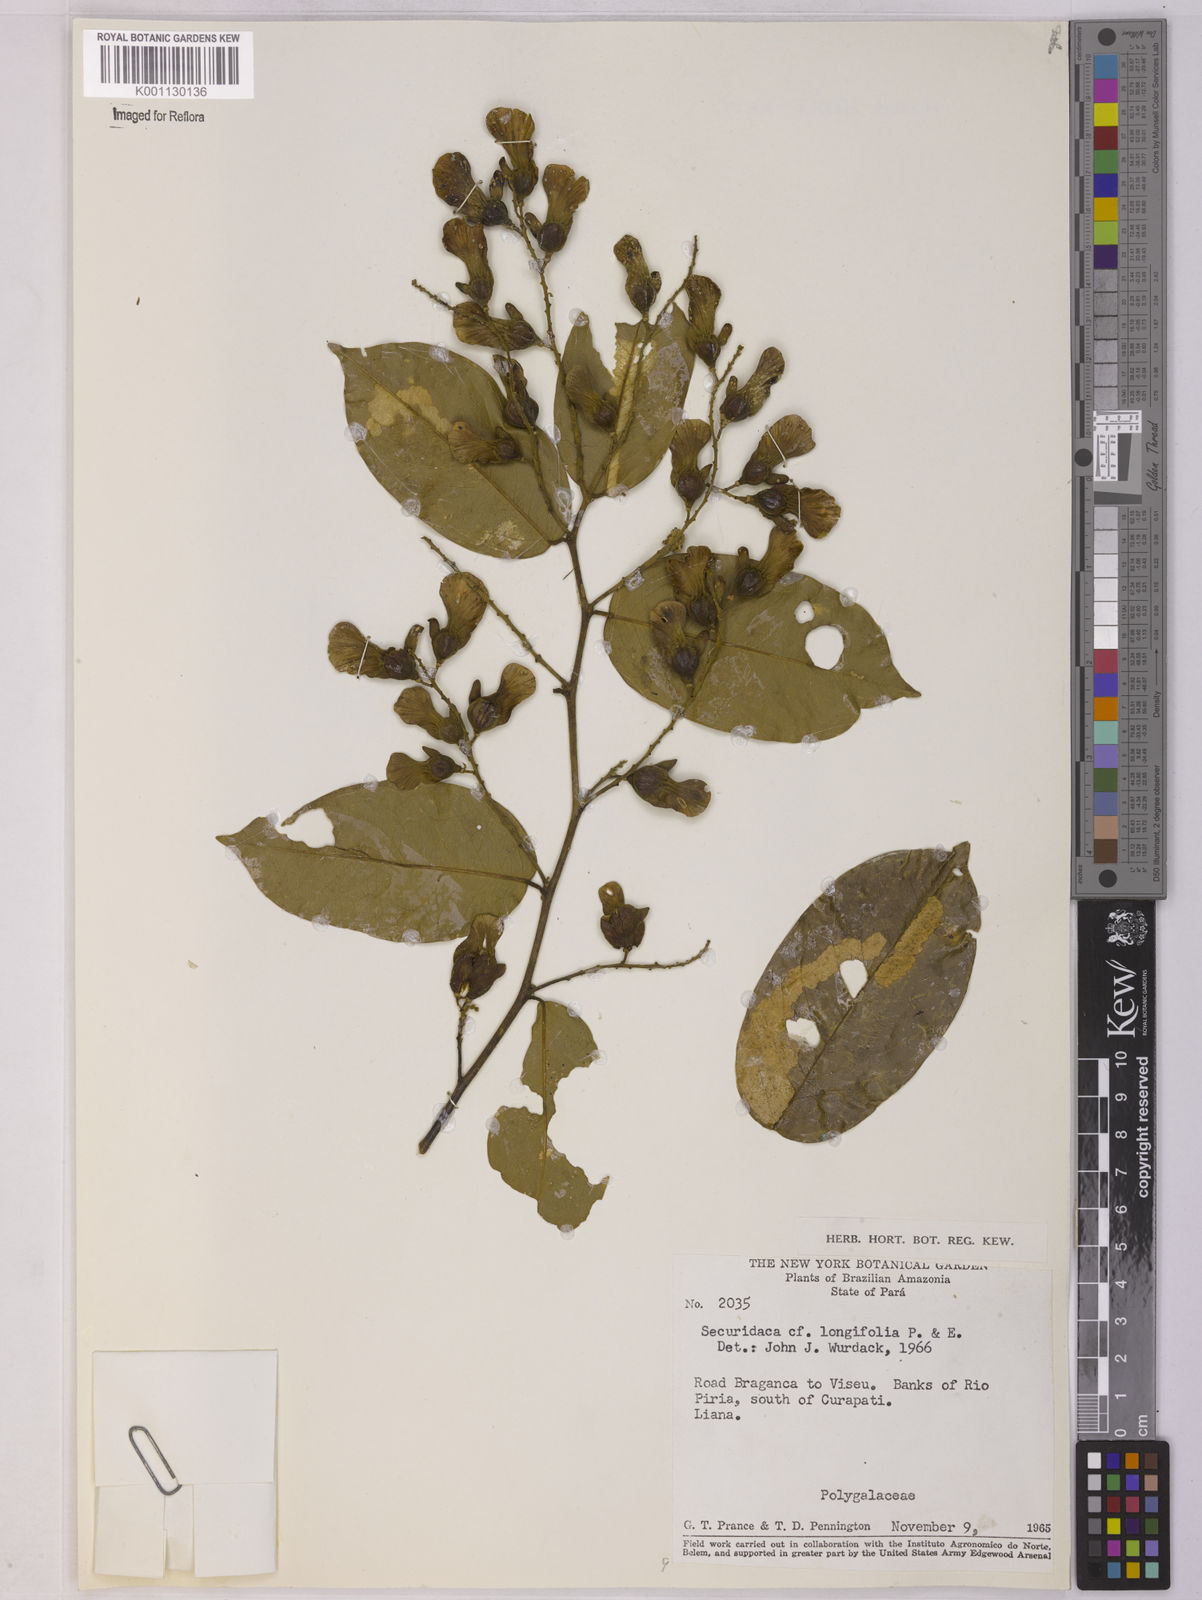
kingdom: Plantae
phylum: Tracheophyta
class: Magnoliopsida
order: Fabales
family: Polygalaceae
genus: Securidaca
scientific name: Securidaca longifolia
